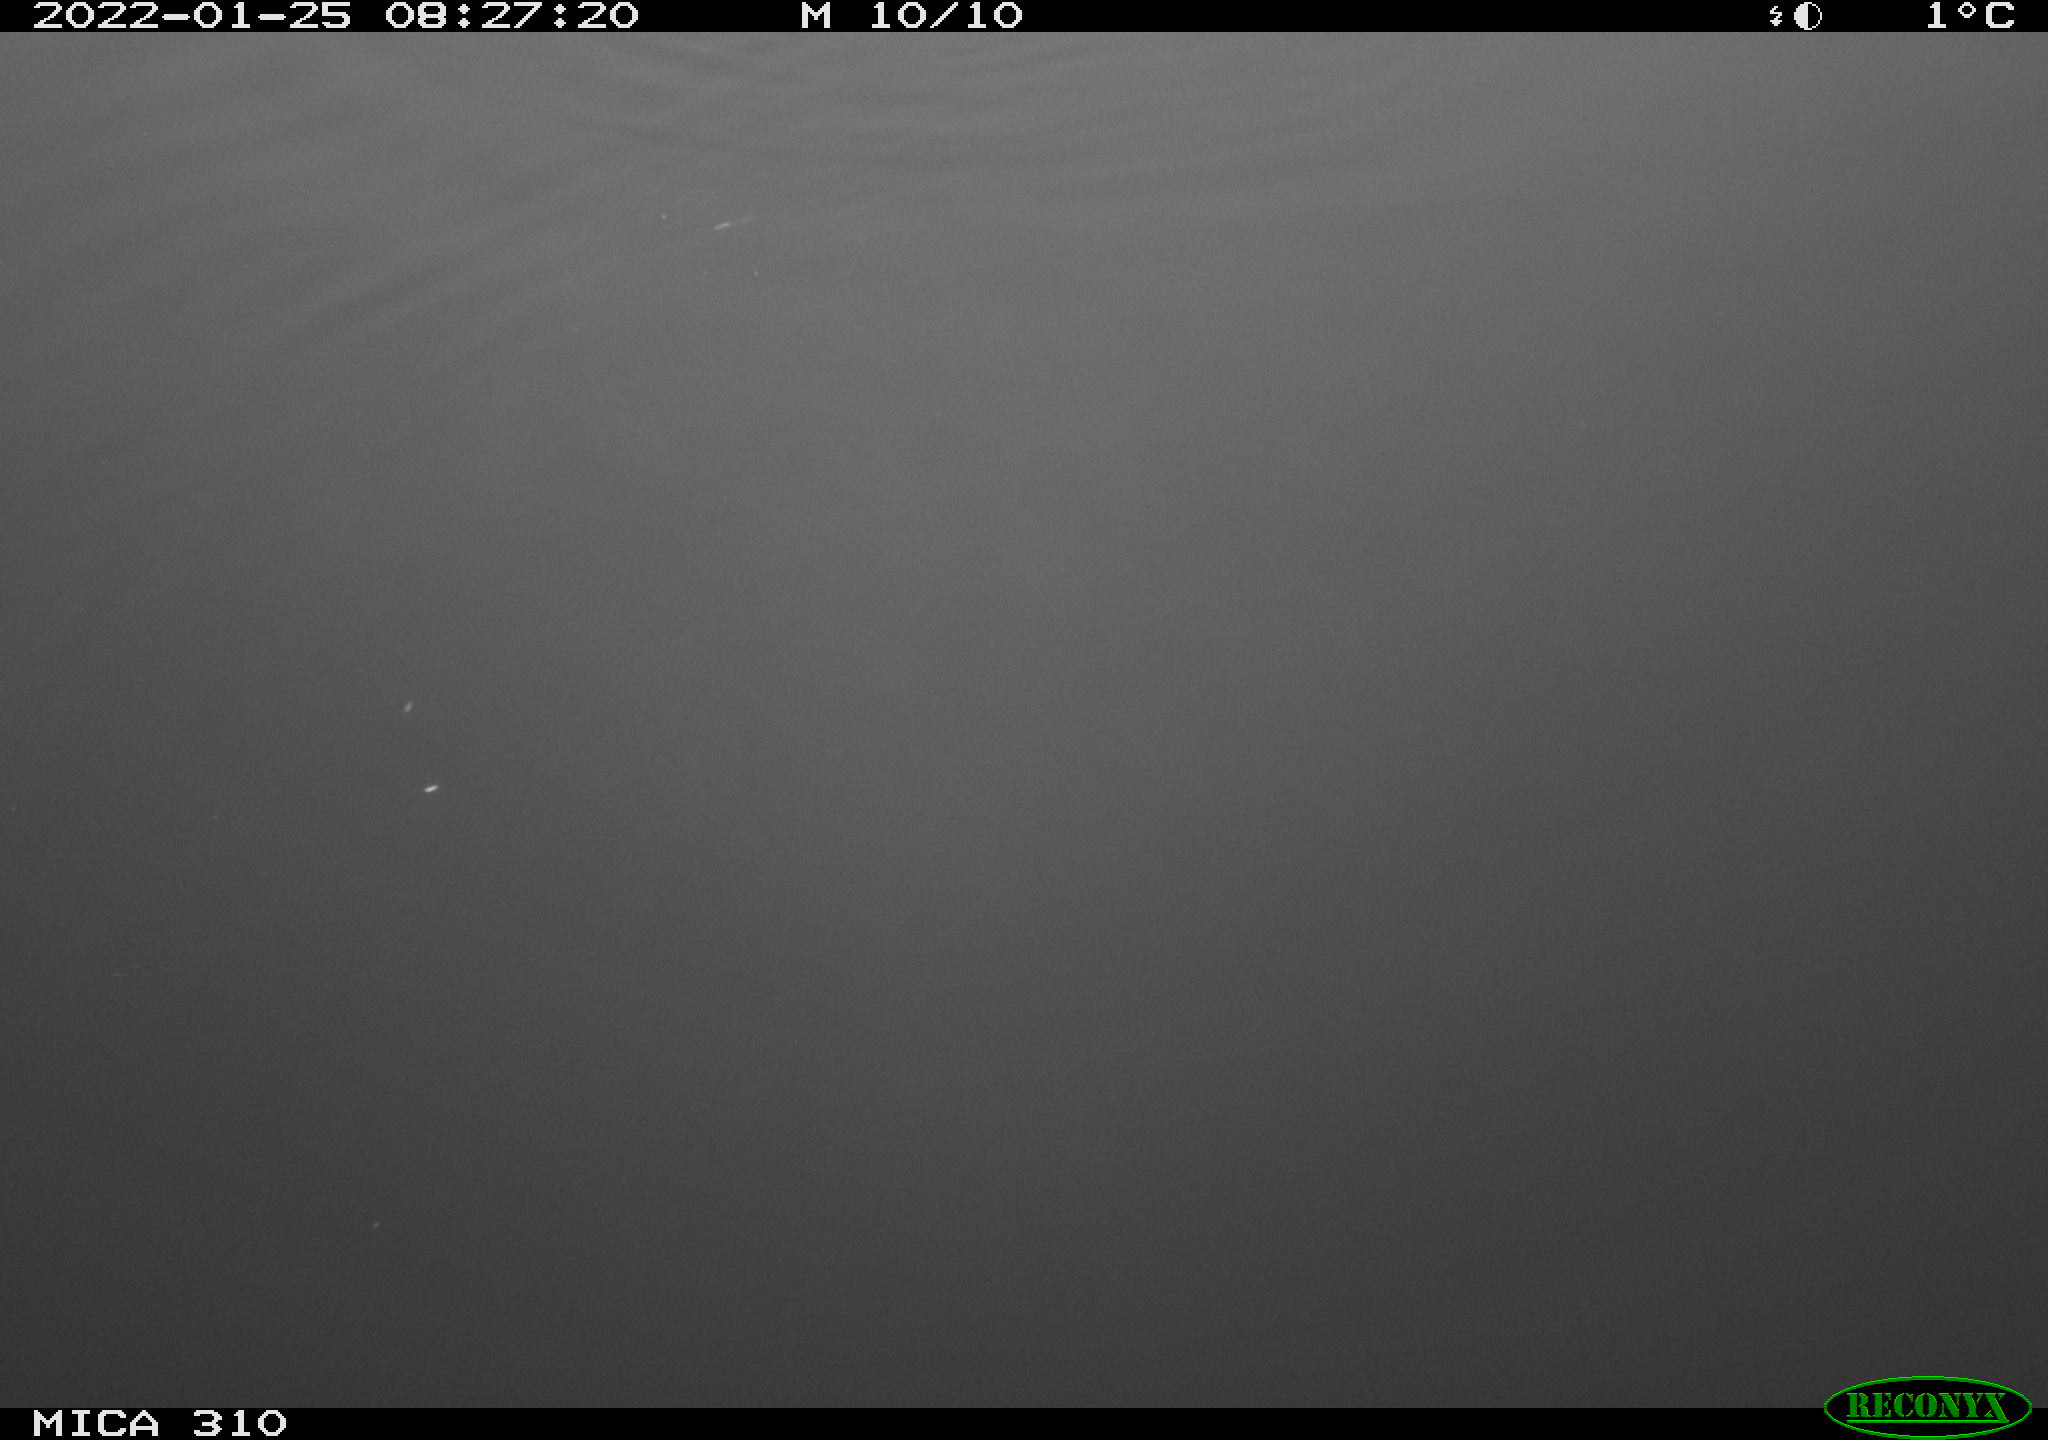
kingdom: Animalia
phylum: Chordata
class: Aves
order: Gruiformes
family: Rallidae
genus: Fulica
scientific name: Fulica atra
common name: Eurasian coot
